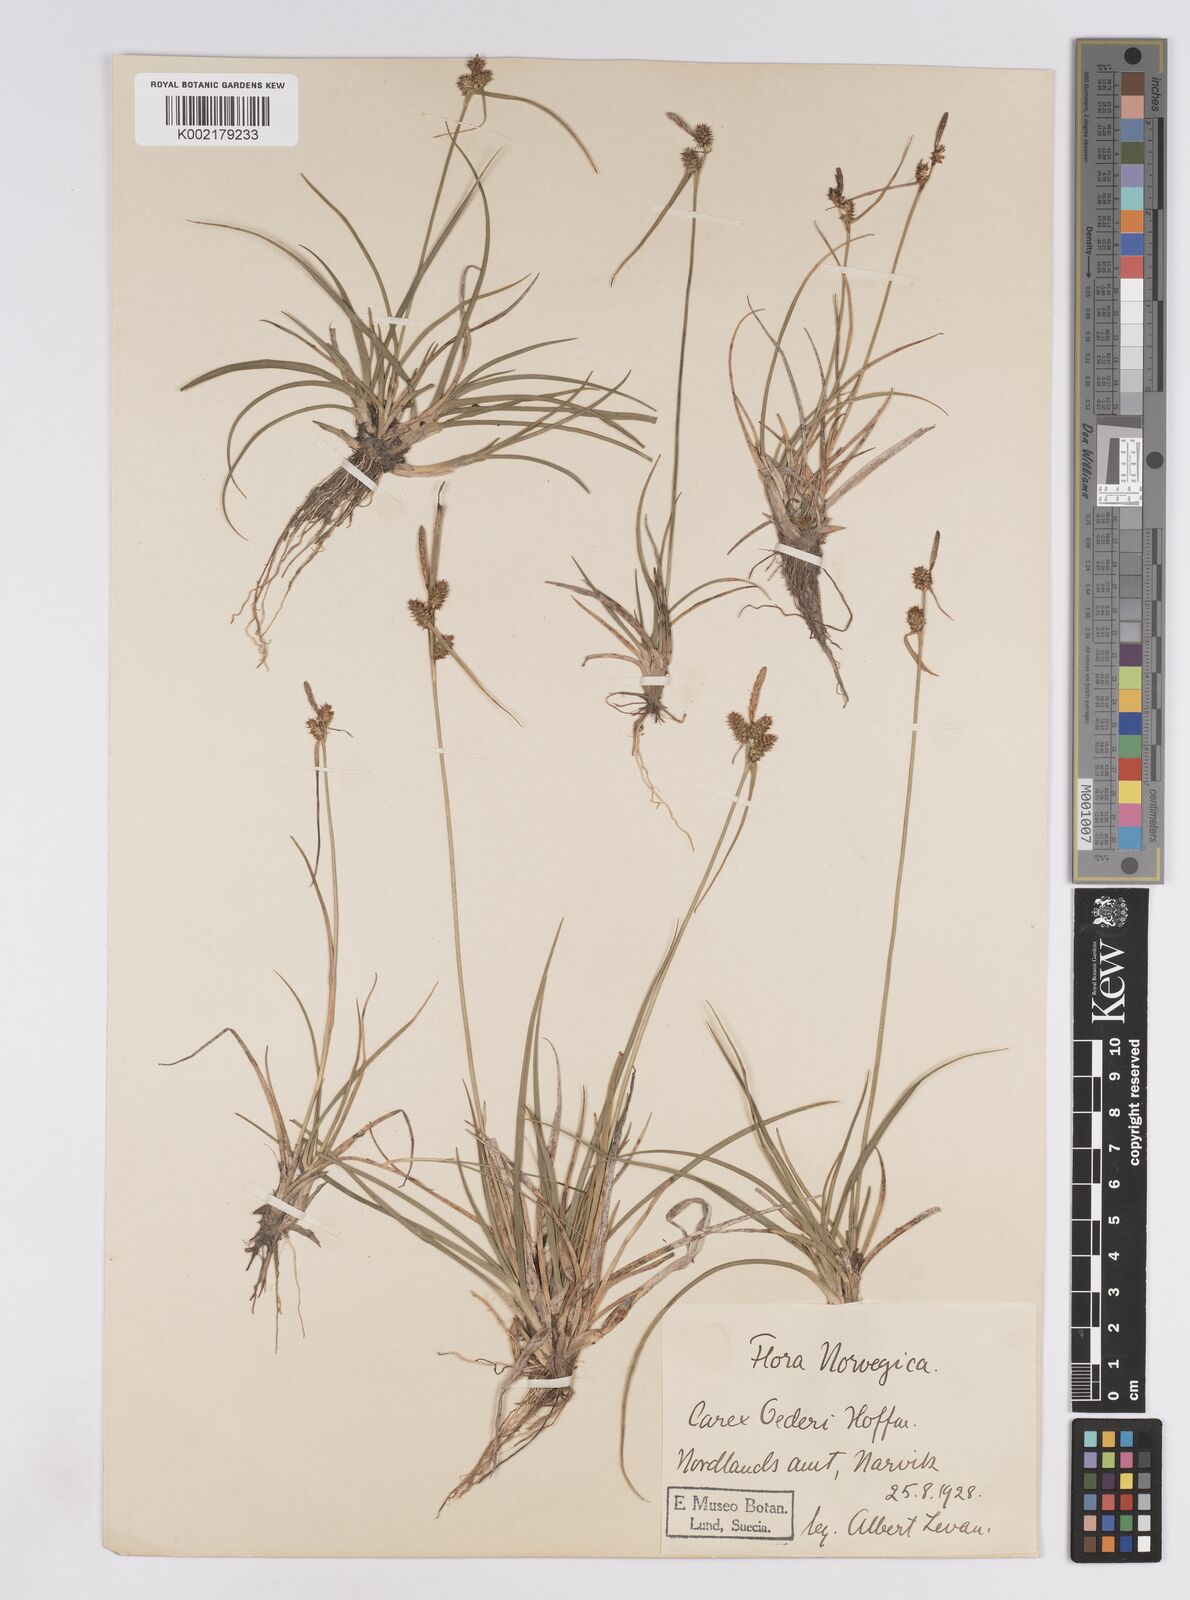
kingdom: Plantae
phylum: Tracheophyta
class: Liliopsida
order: Poales
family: Cyperaceae
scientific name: Cyperaceae
